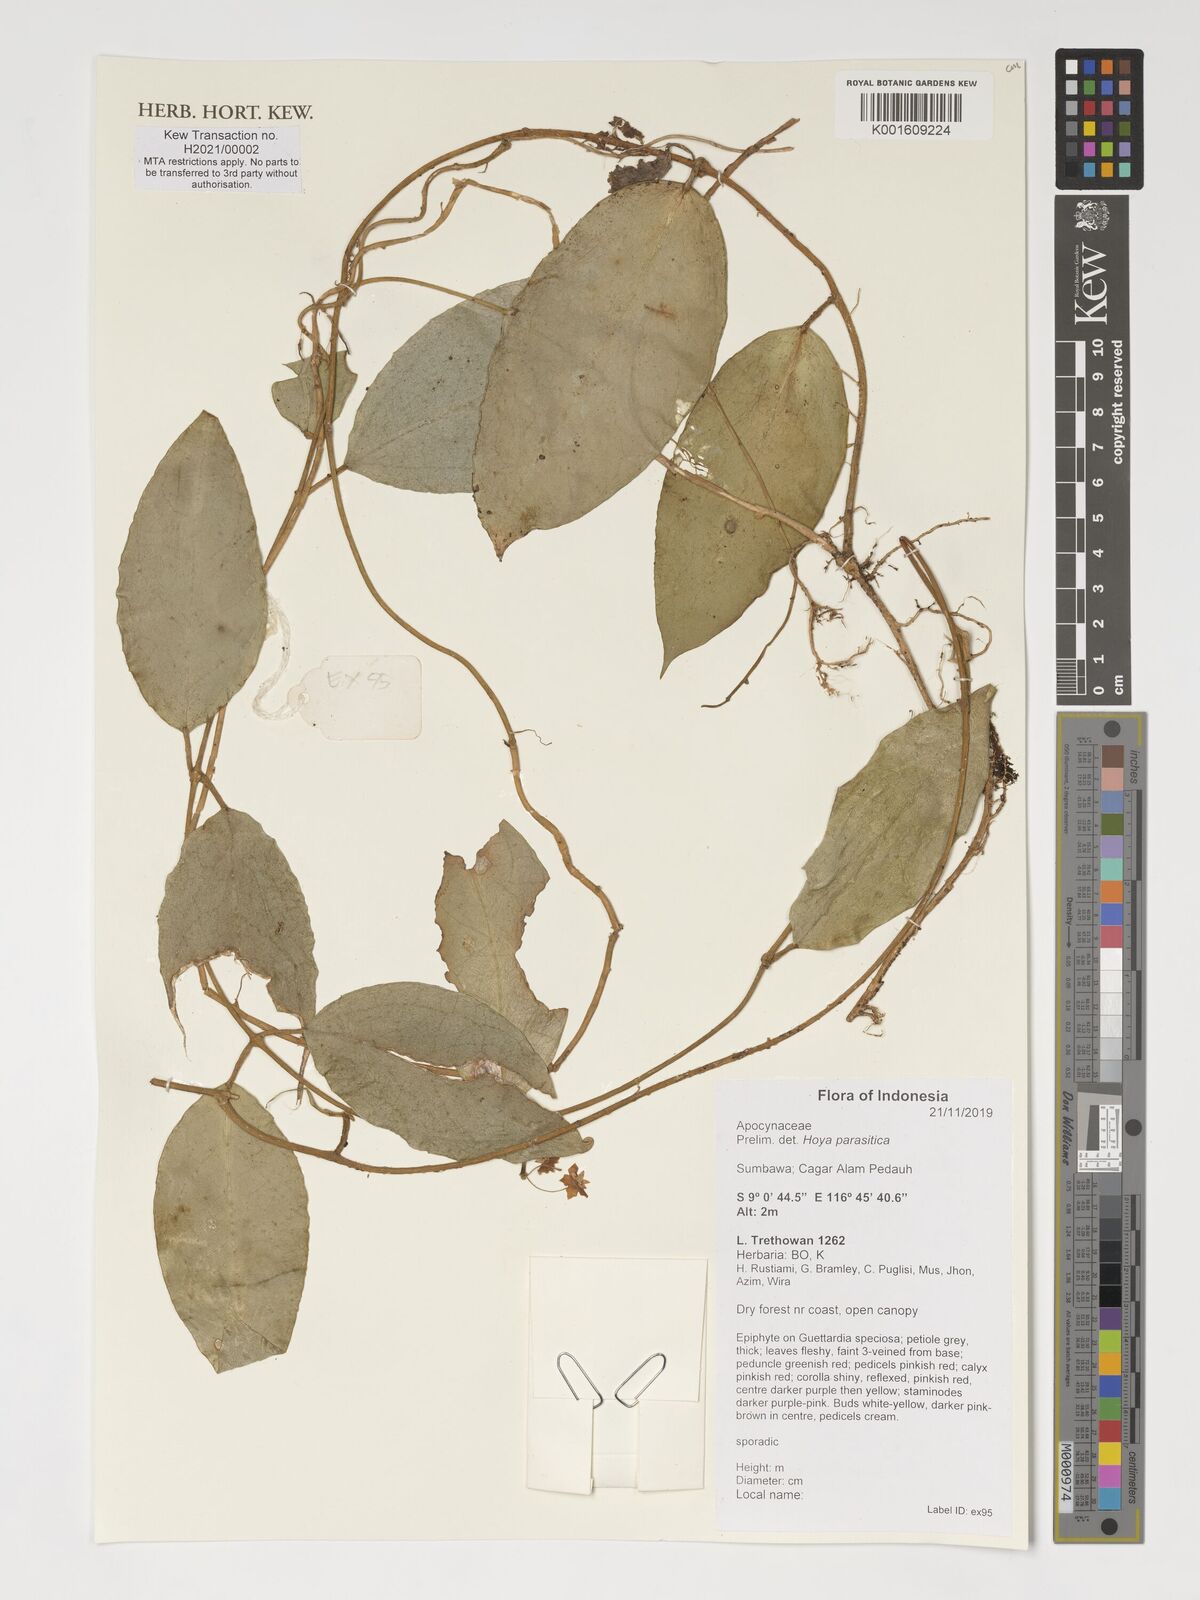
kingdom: Plantae
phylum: Tracheophyta
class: Magnoliopsida
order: Gentianales
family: Apocynaceae
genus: Hoya
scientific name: Hoya verticillata
